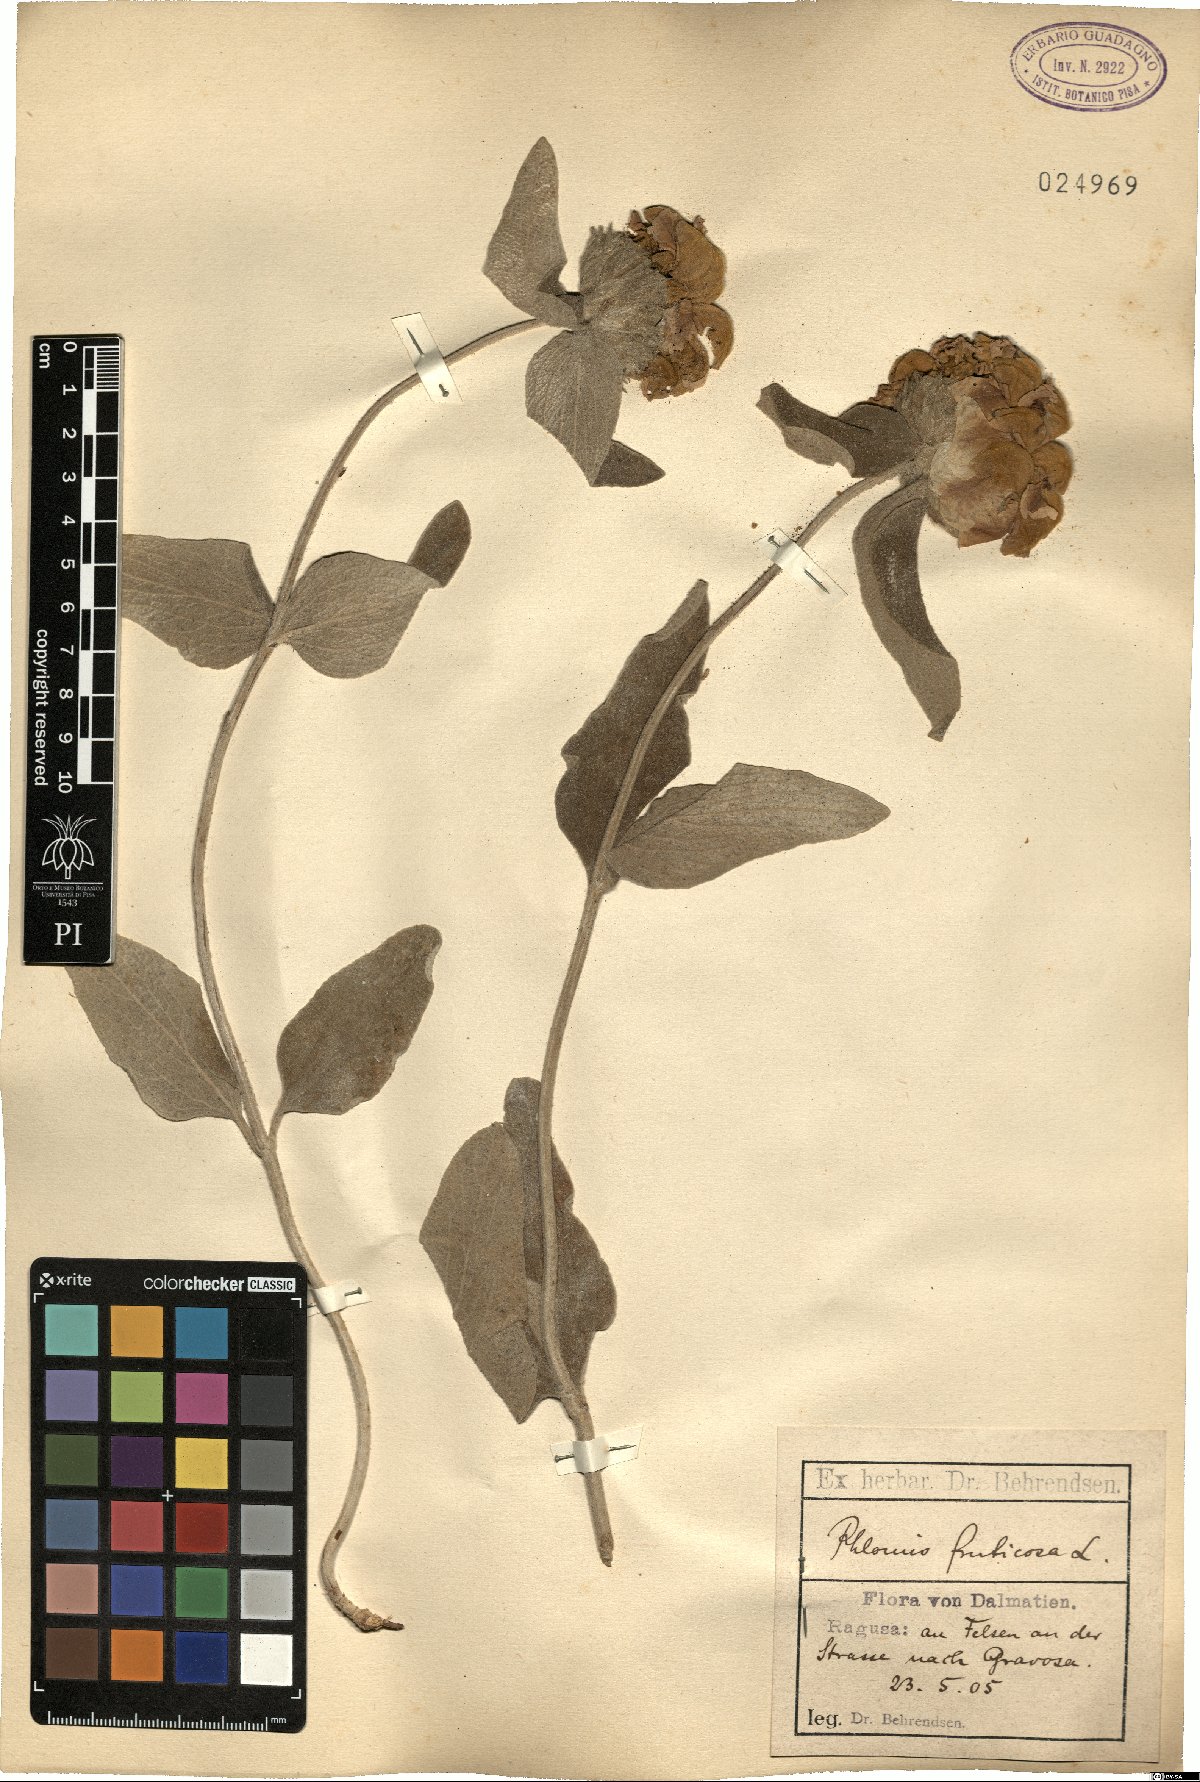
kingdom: Plantae
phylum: Tracheophyta
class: Magnoliopsida
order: Lamiales
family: Lamiaceae
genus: Phlomis
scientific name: Phlomis fruticosa
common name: Jerusalem sage
